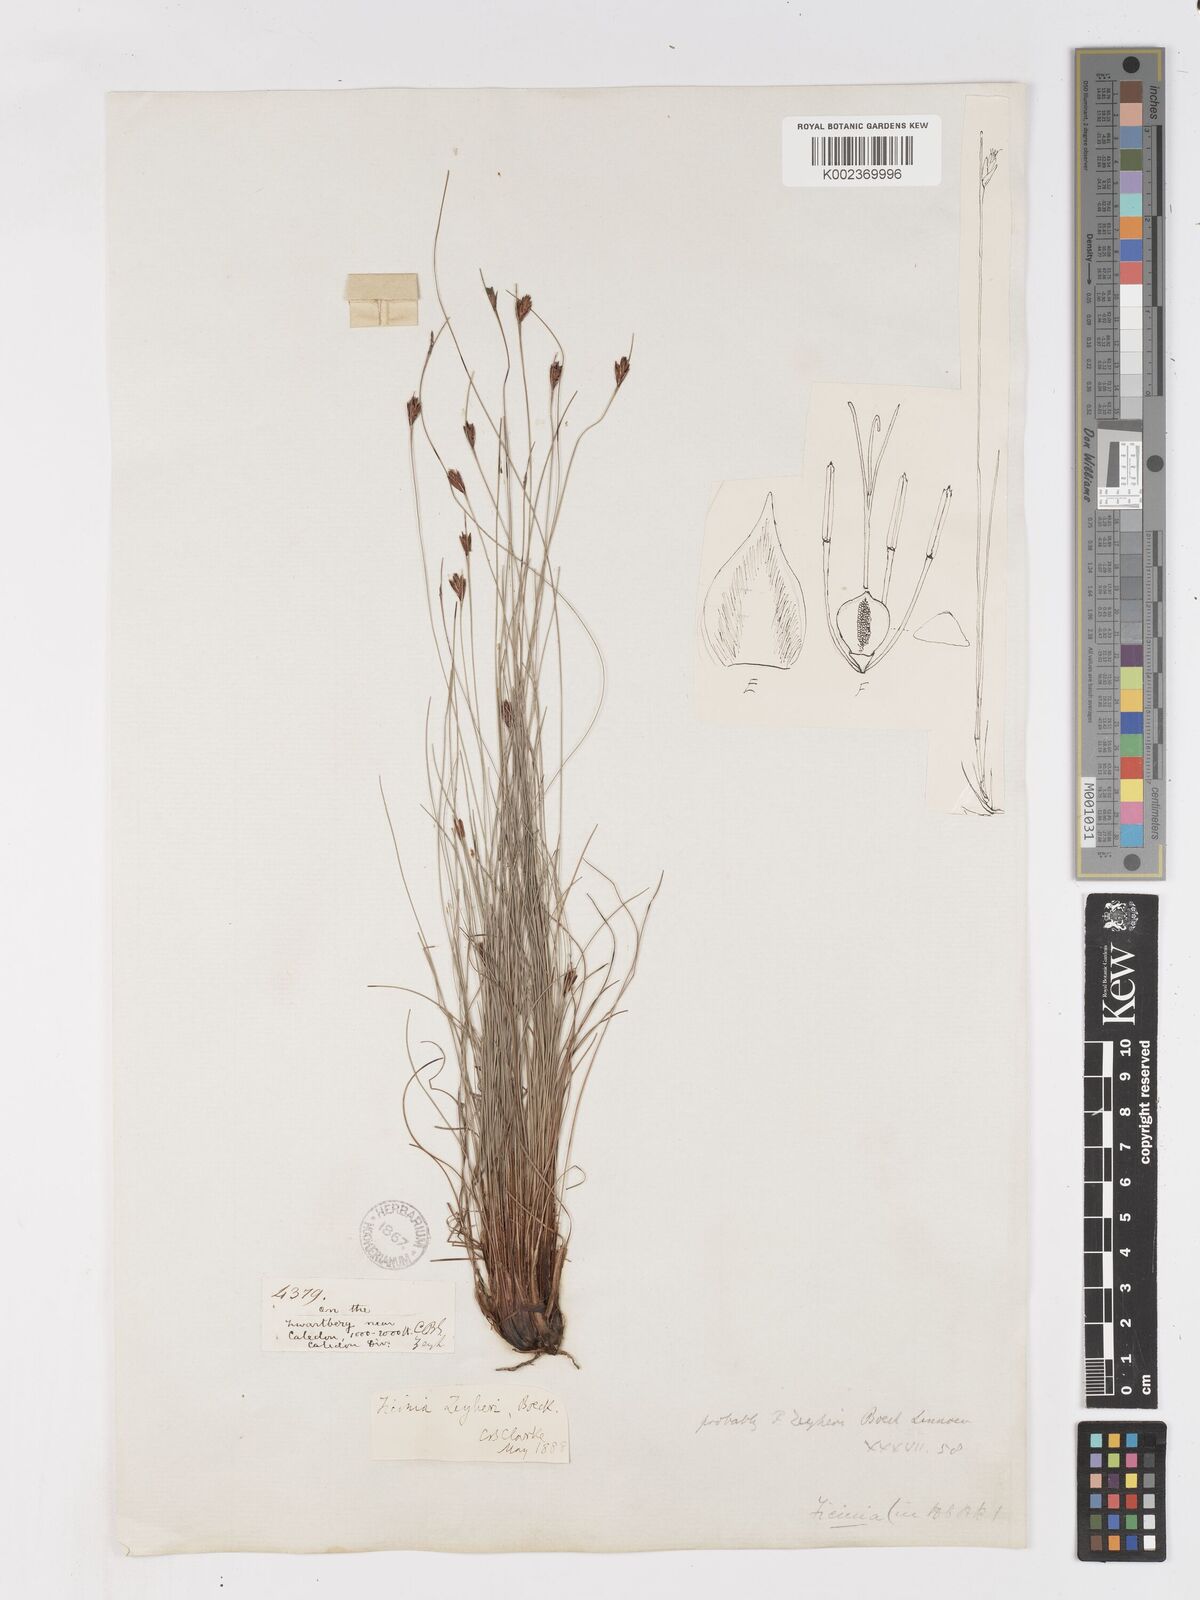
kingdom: Plantae
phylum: Tracheophyta
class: Liliopsida
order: Poales
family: Cyperaceae
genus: Ficinia
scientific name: Ficinia zeyheri
